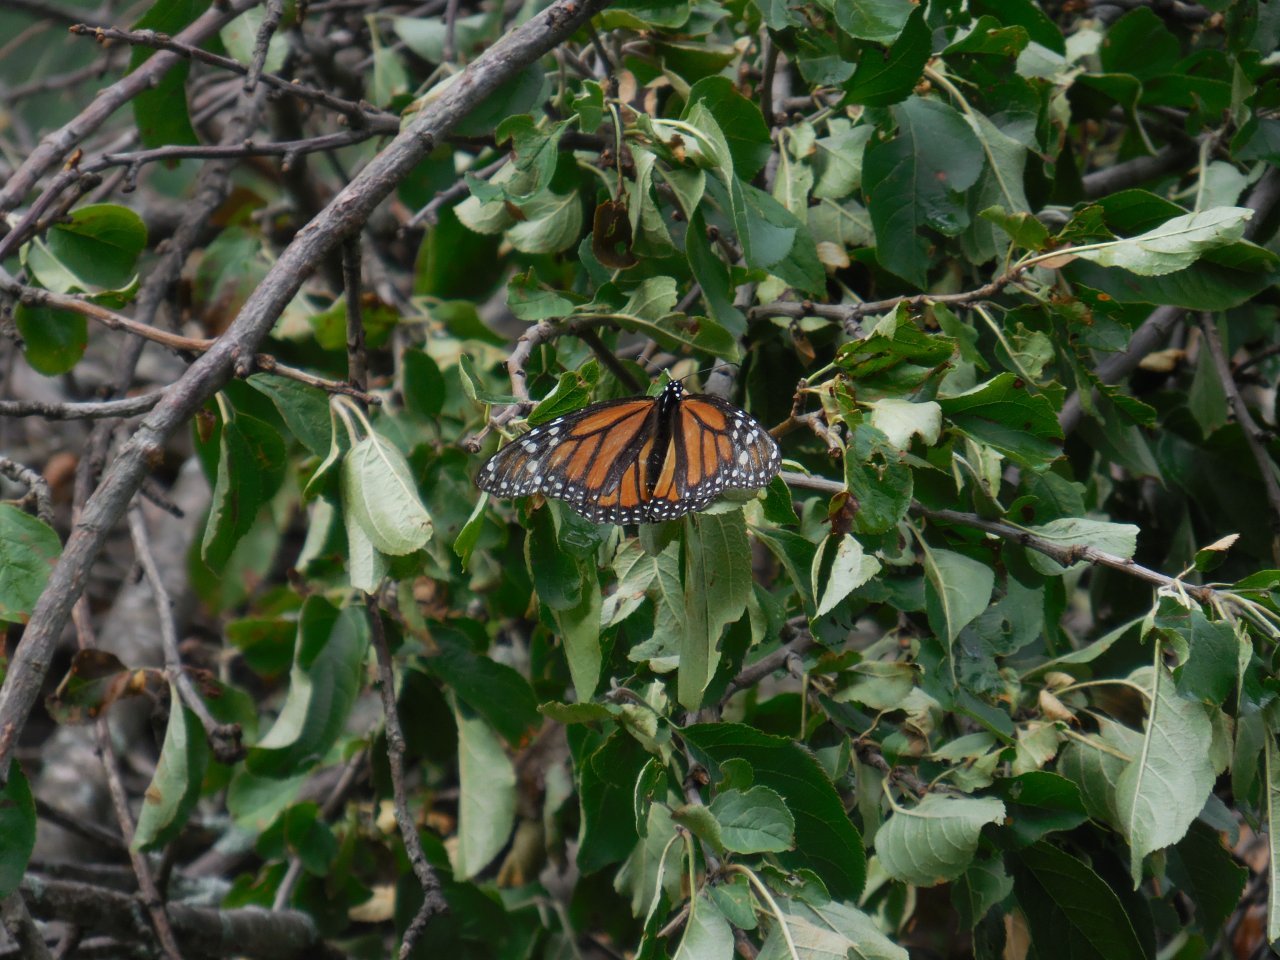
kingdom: Animalia
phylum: Arthropoda
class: Insecta
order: Lepidoptera
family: Nymphalidae
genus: Danaus
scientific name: Danaus plexippus
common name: Monarch
